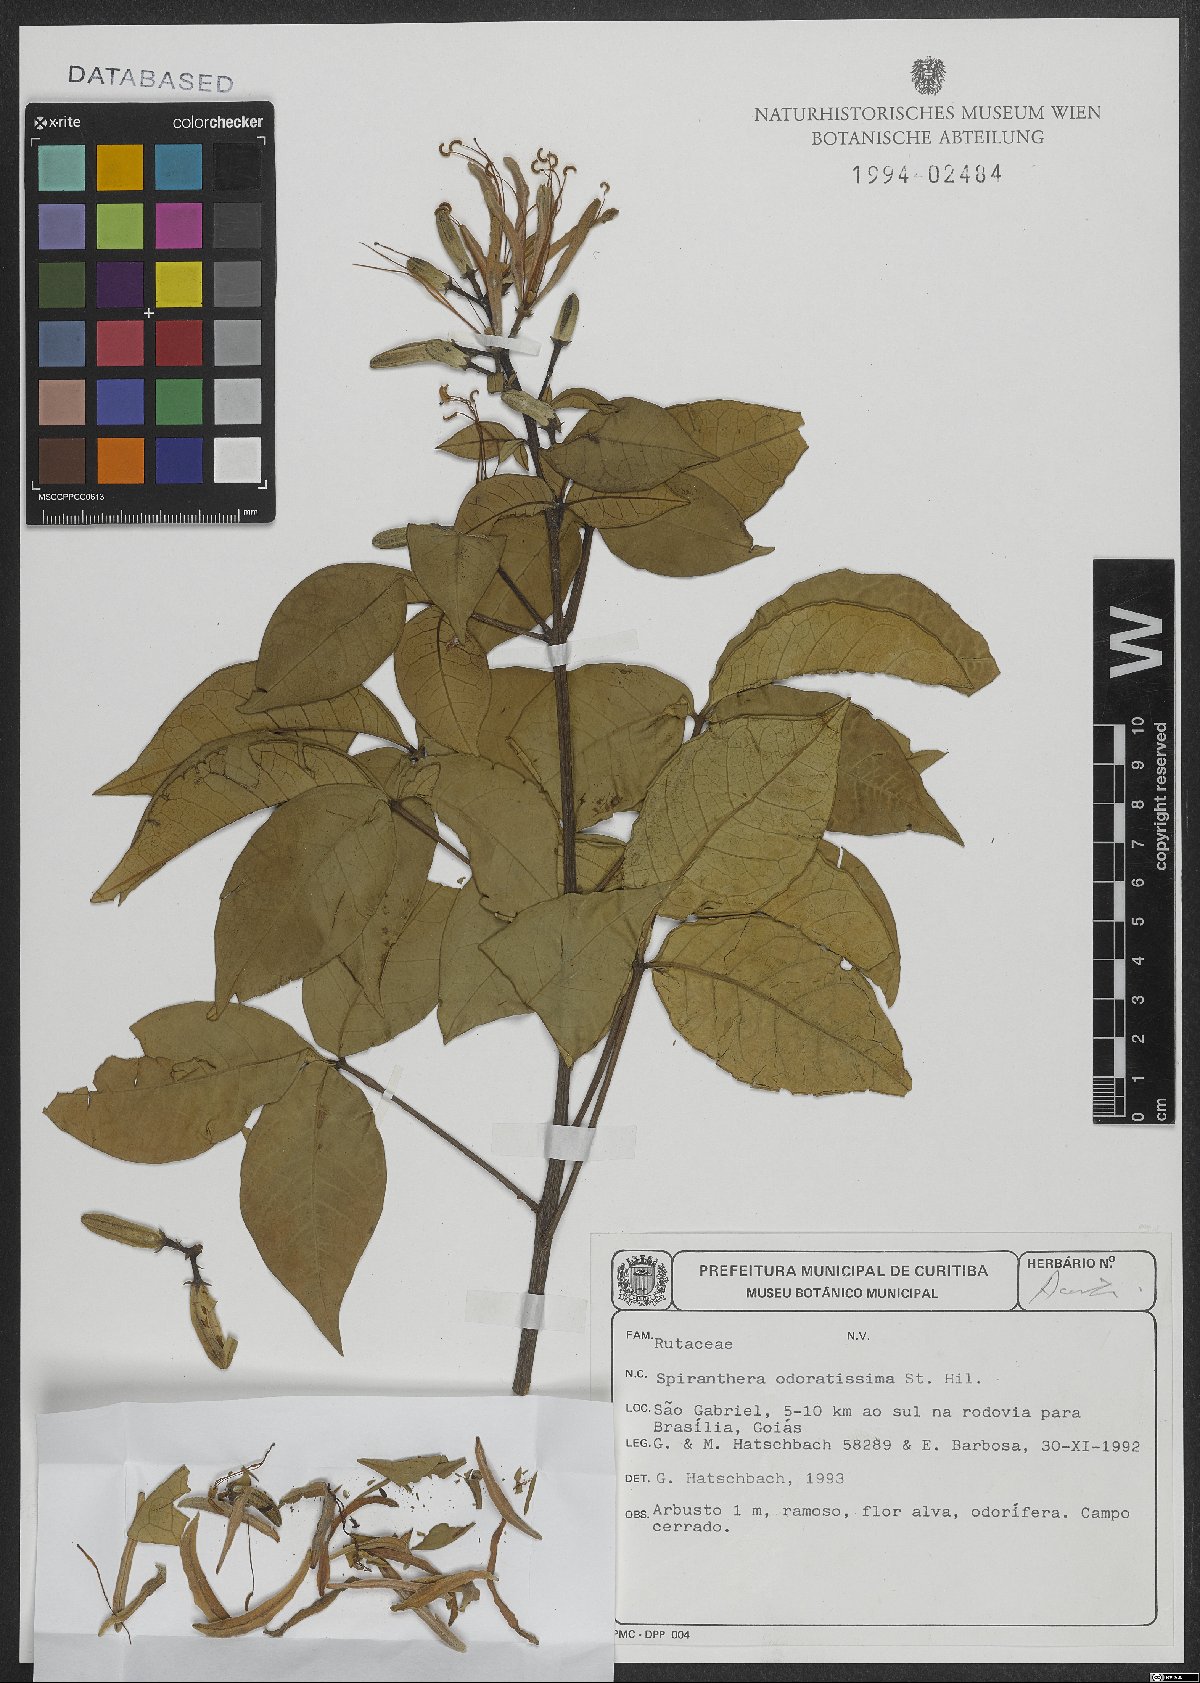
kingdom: Plantae
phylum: Tracheophyta
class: Magnoliopsida
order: Sapindales
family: Rutaceae
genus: Spiranthera
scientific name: Spiranthera odoratissima
